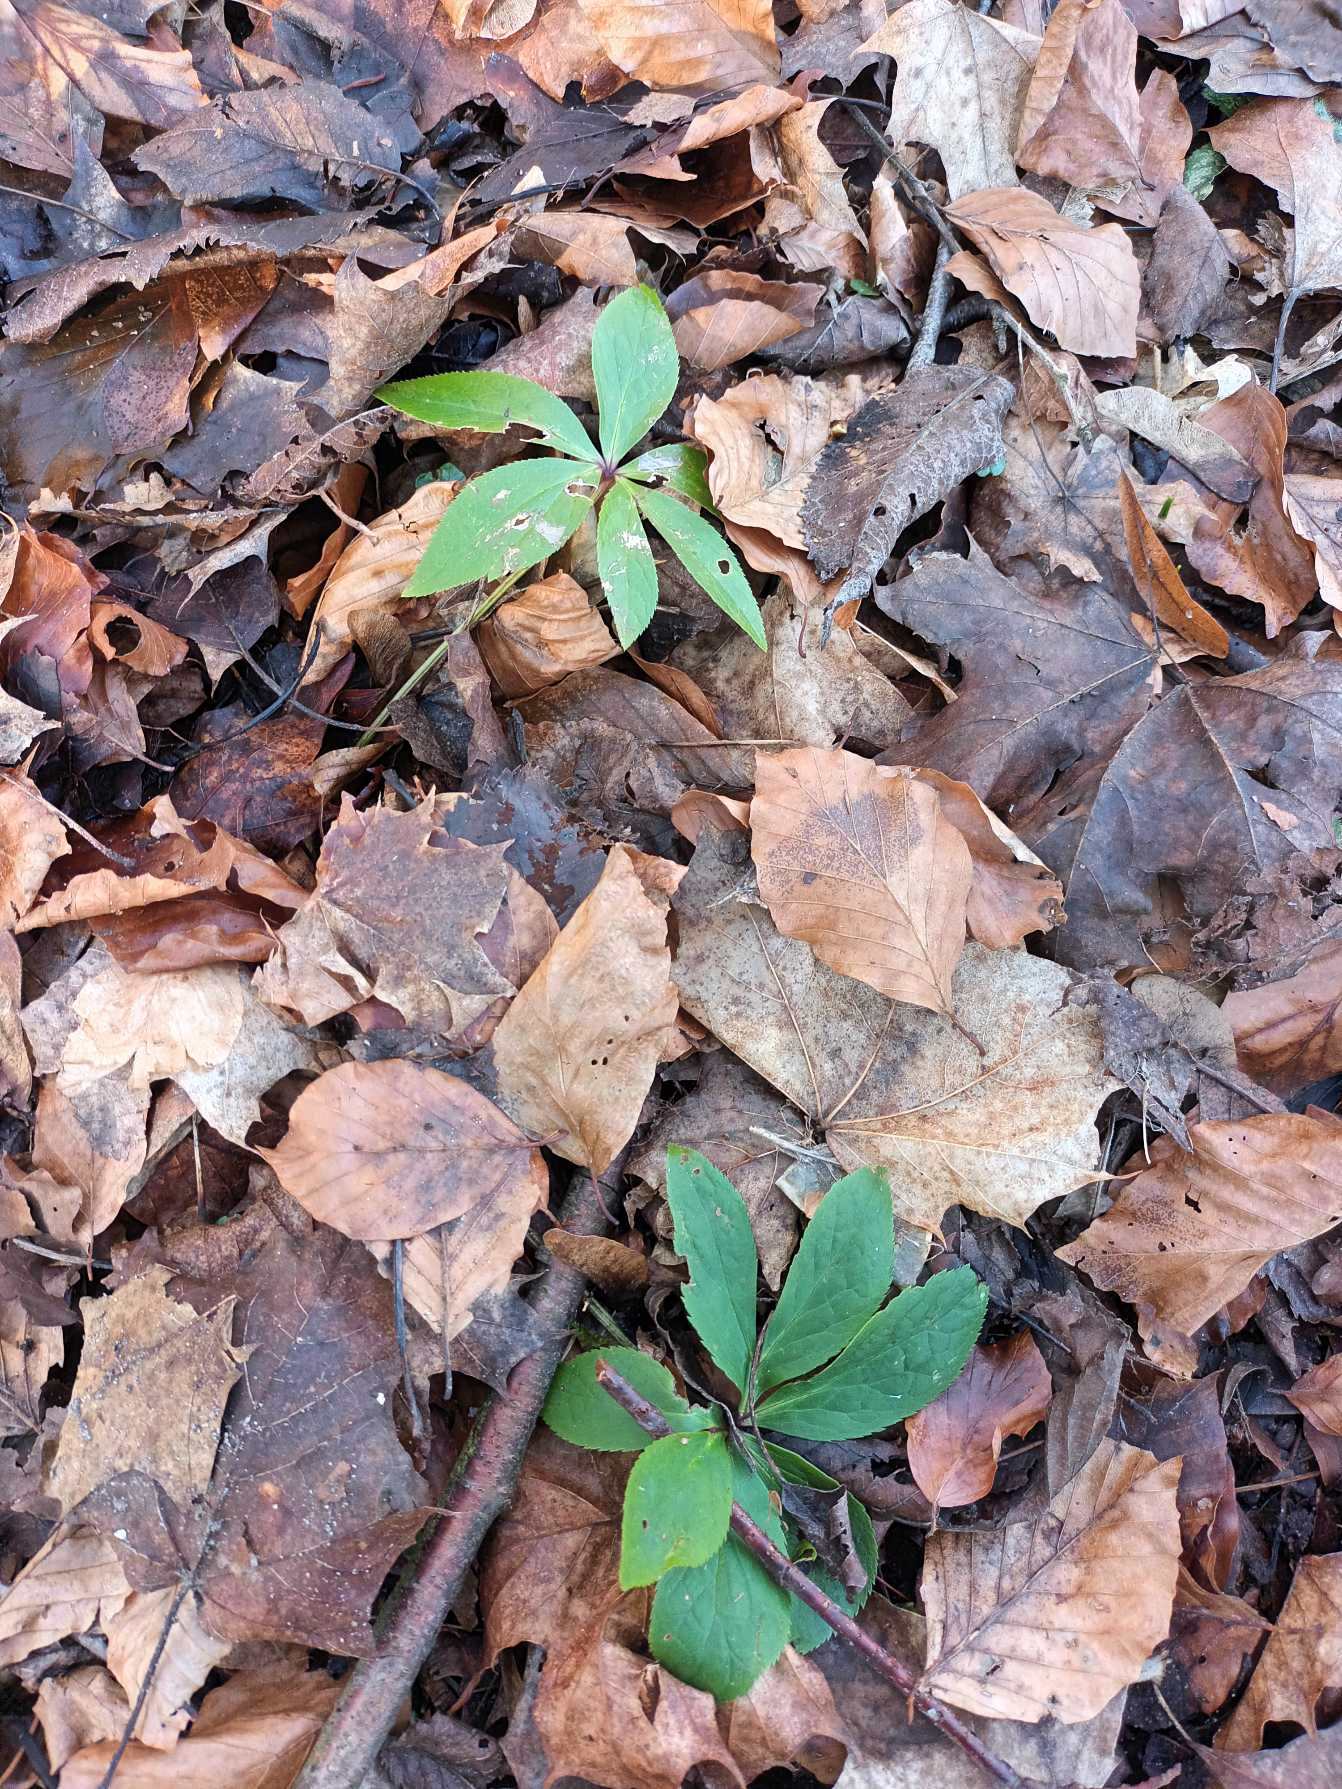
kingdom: Plantae
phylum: Tracheophyta
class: Magnoliopsida
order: Ranunculales
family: Ranunculaceae
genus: Helleborus
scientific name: Helleborus orientalis
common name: Rød julerose
